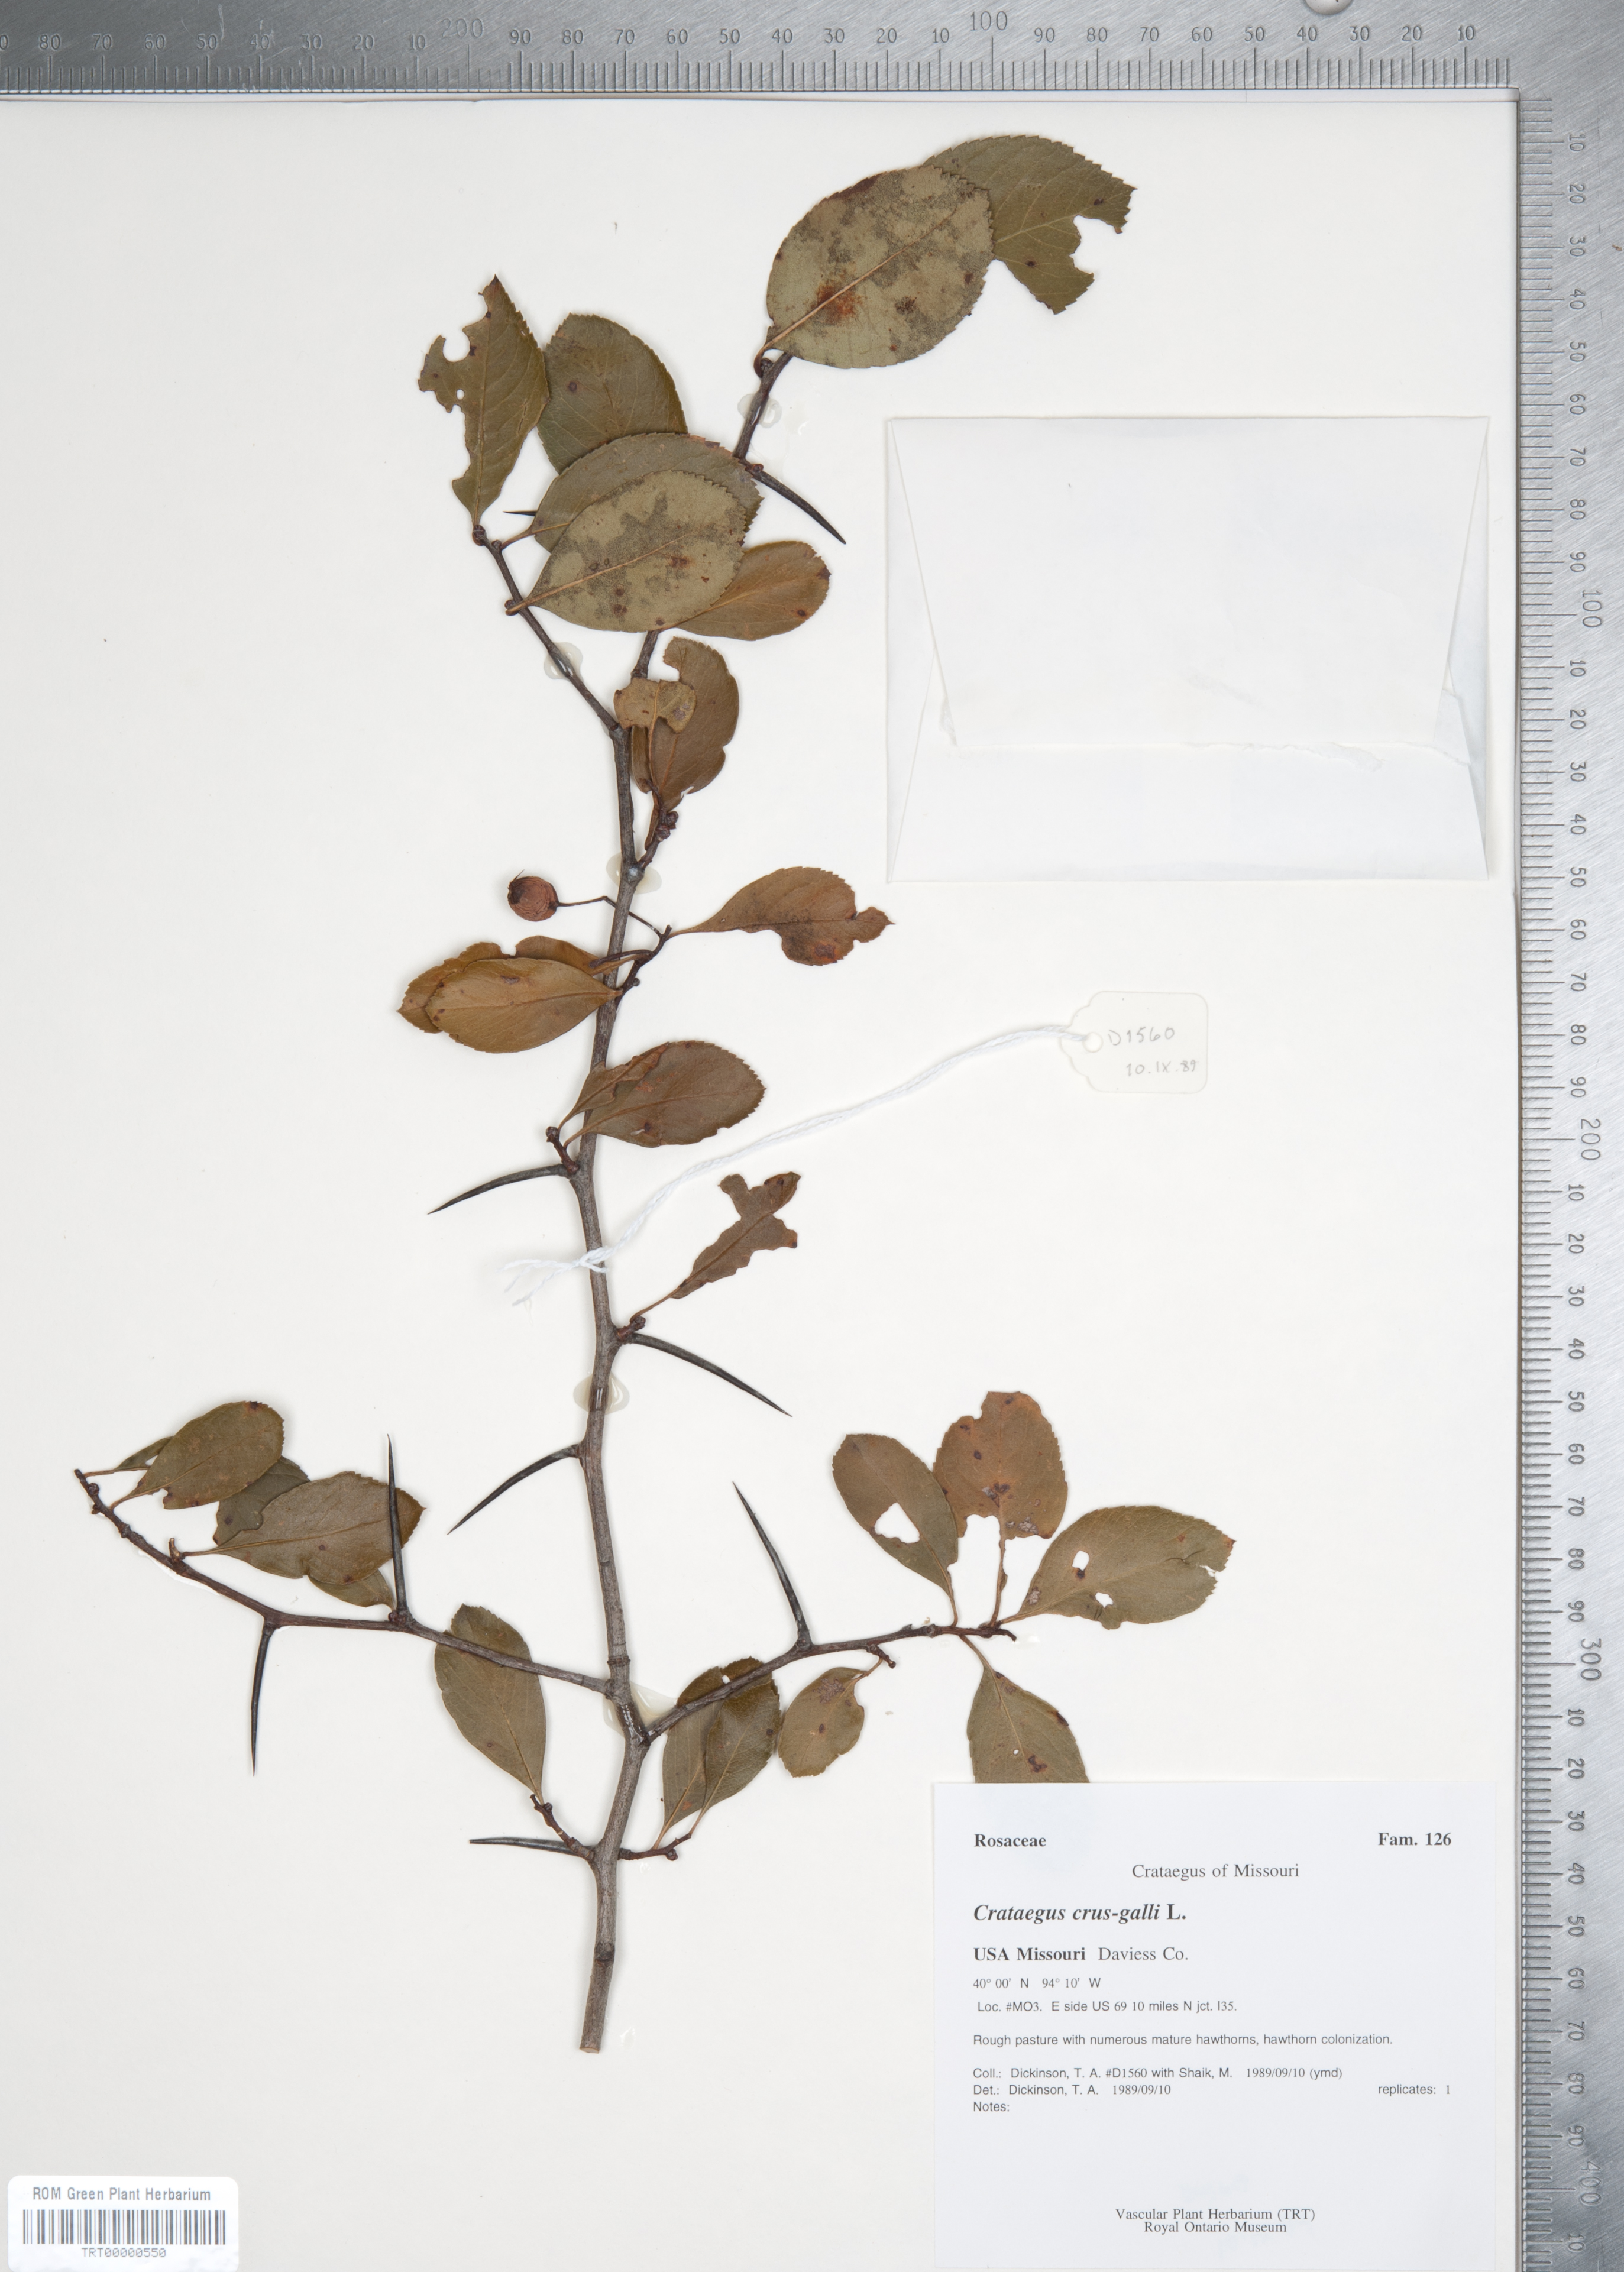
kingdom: Plantae
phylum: Tracheophyta
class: Magnoliopsida
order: Rosales
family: Rosaceae
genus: Crataegus
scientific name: Crataegus crus-galli
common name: Cockspurthorn
